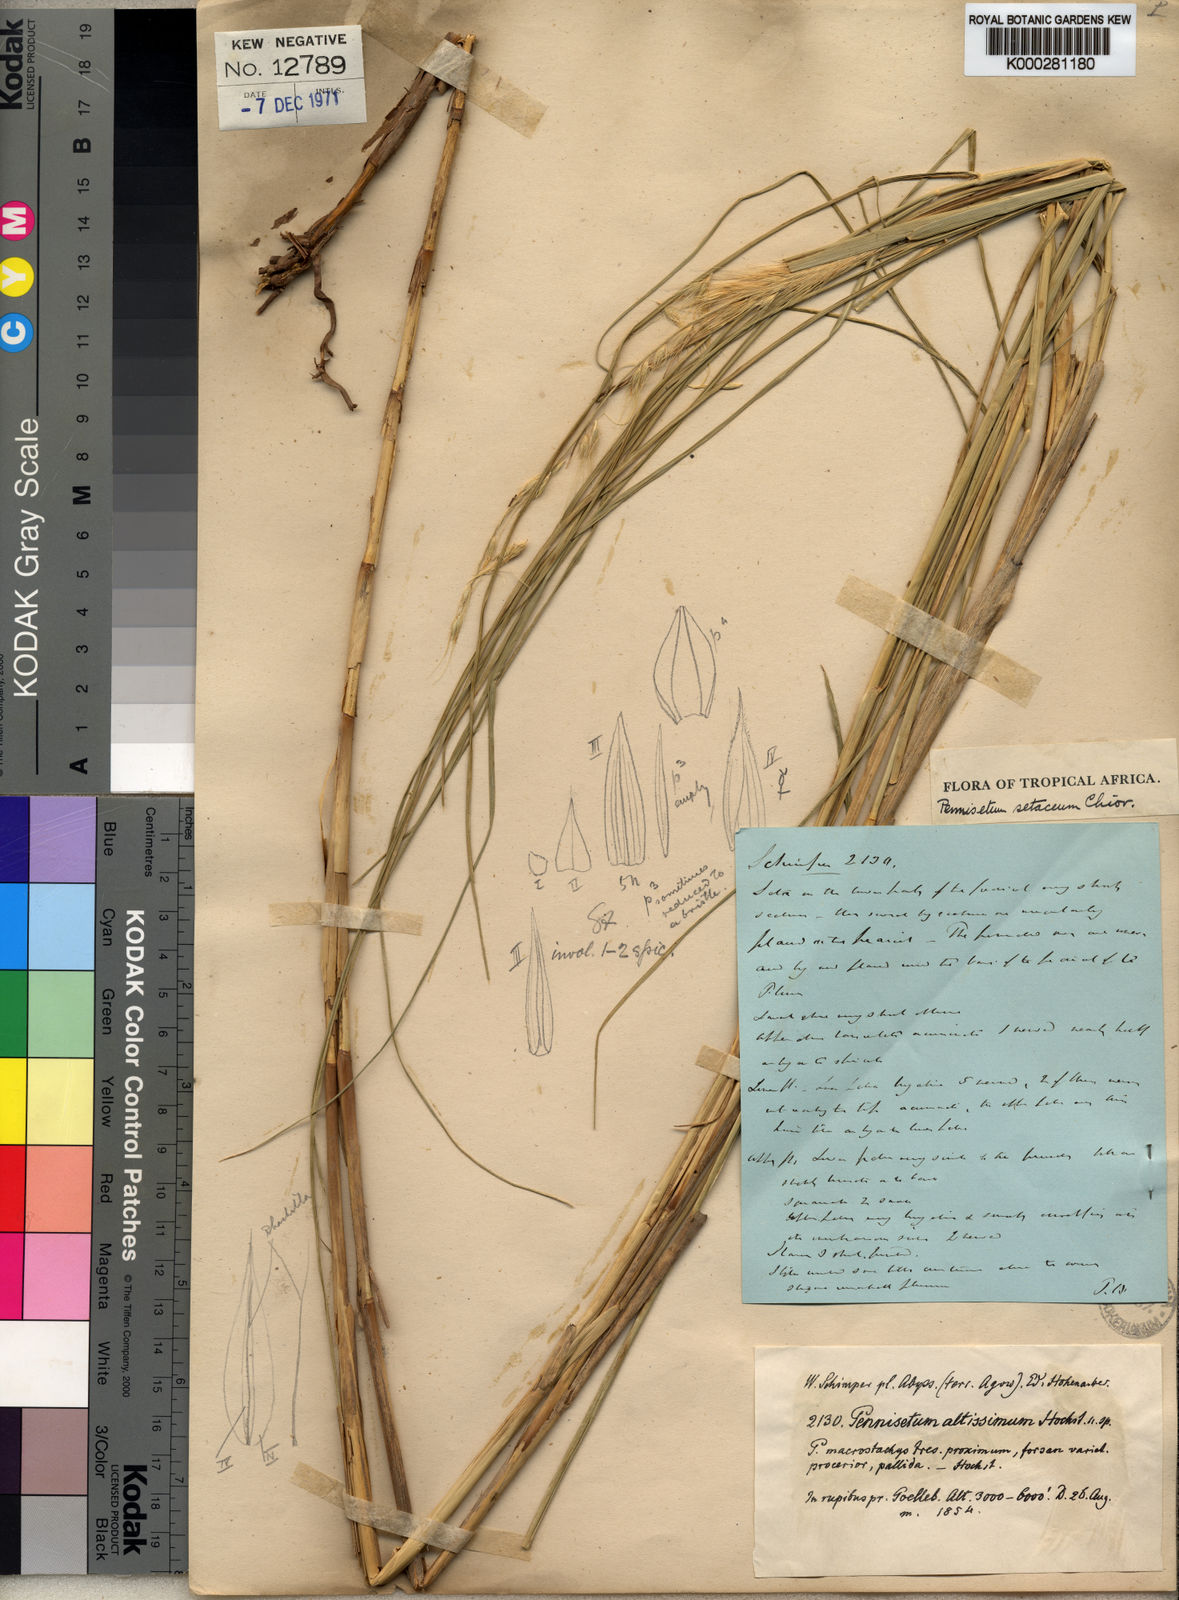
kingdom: Plantae
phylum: Tracheophyta
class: Liliopsida
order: Poales
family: Poaceae
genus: Cenchrus
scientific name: Cenchrus setaceus
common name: Crimson fountaingrass
